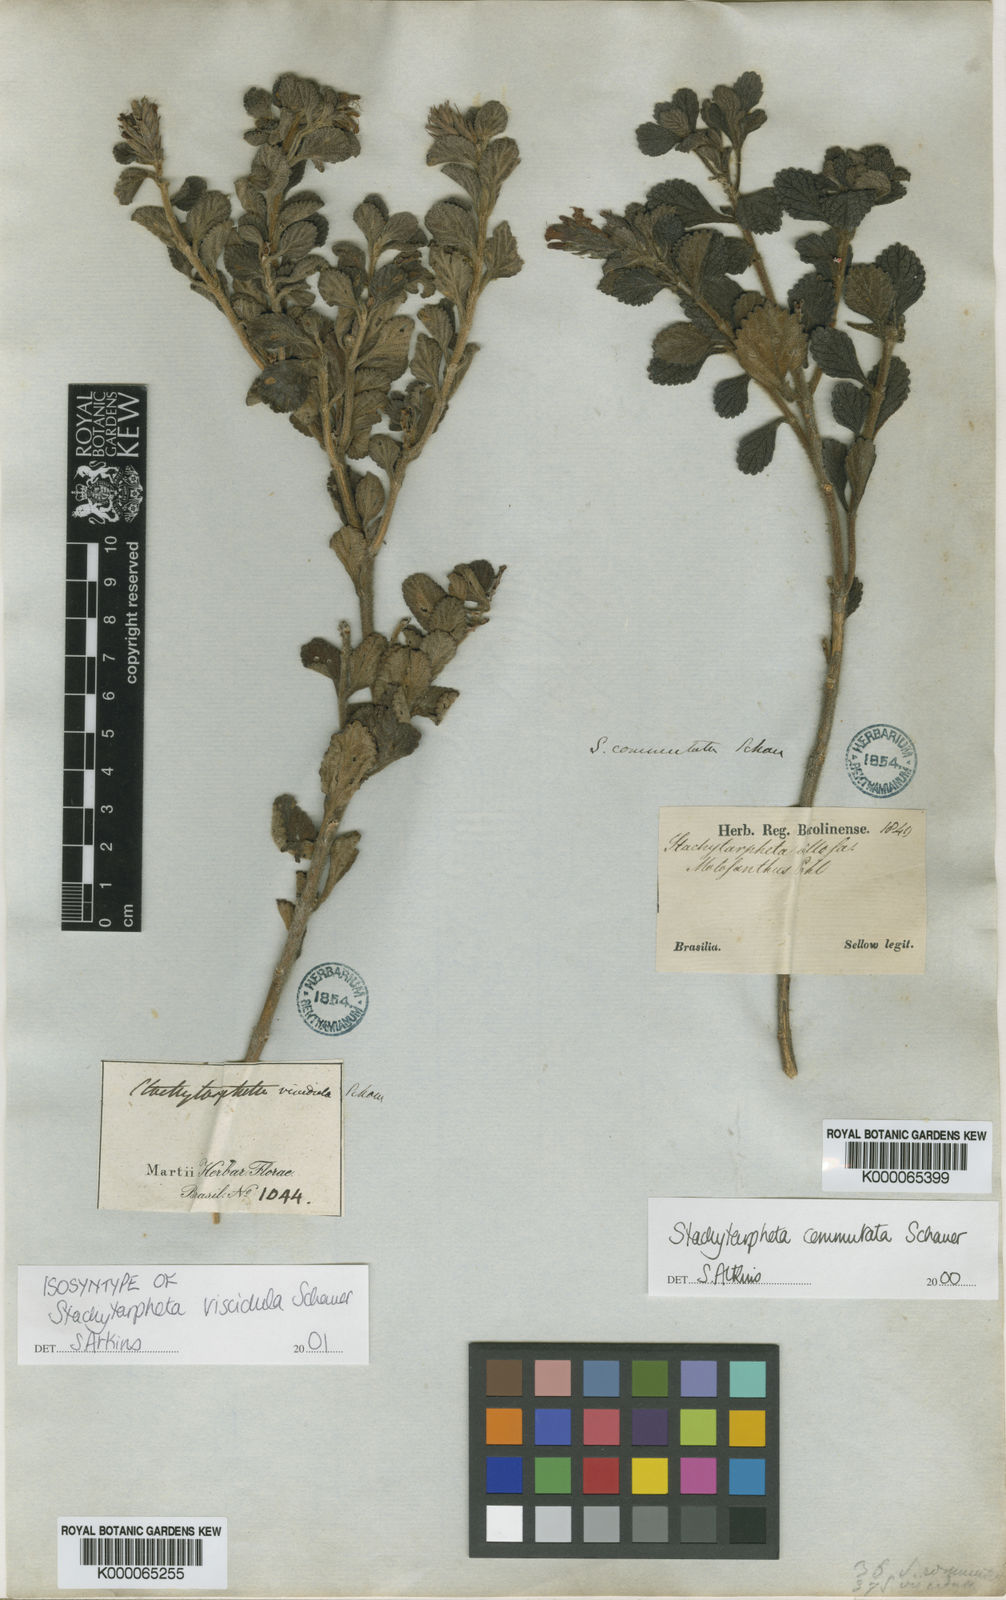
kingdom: Plantae
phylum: Tracheophyta
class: Magnoliopsida
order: Lamiales
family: Verbenaceae
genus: Stachytarpheta
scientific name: Stachytarpheta viscidula
